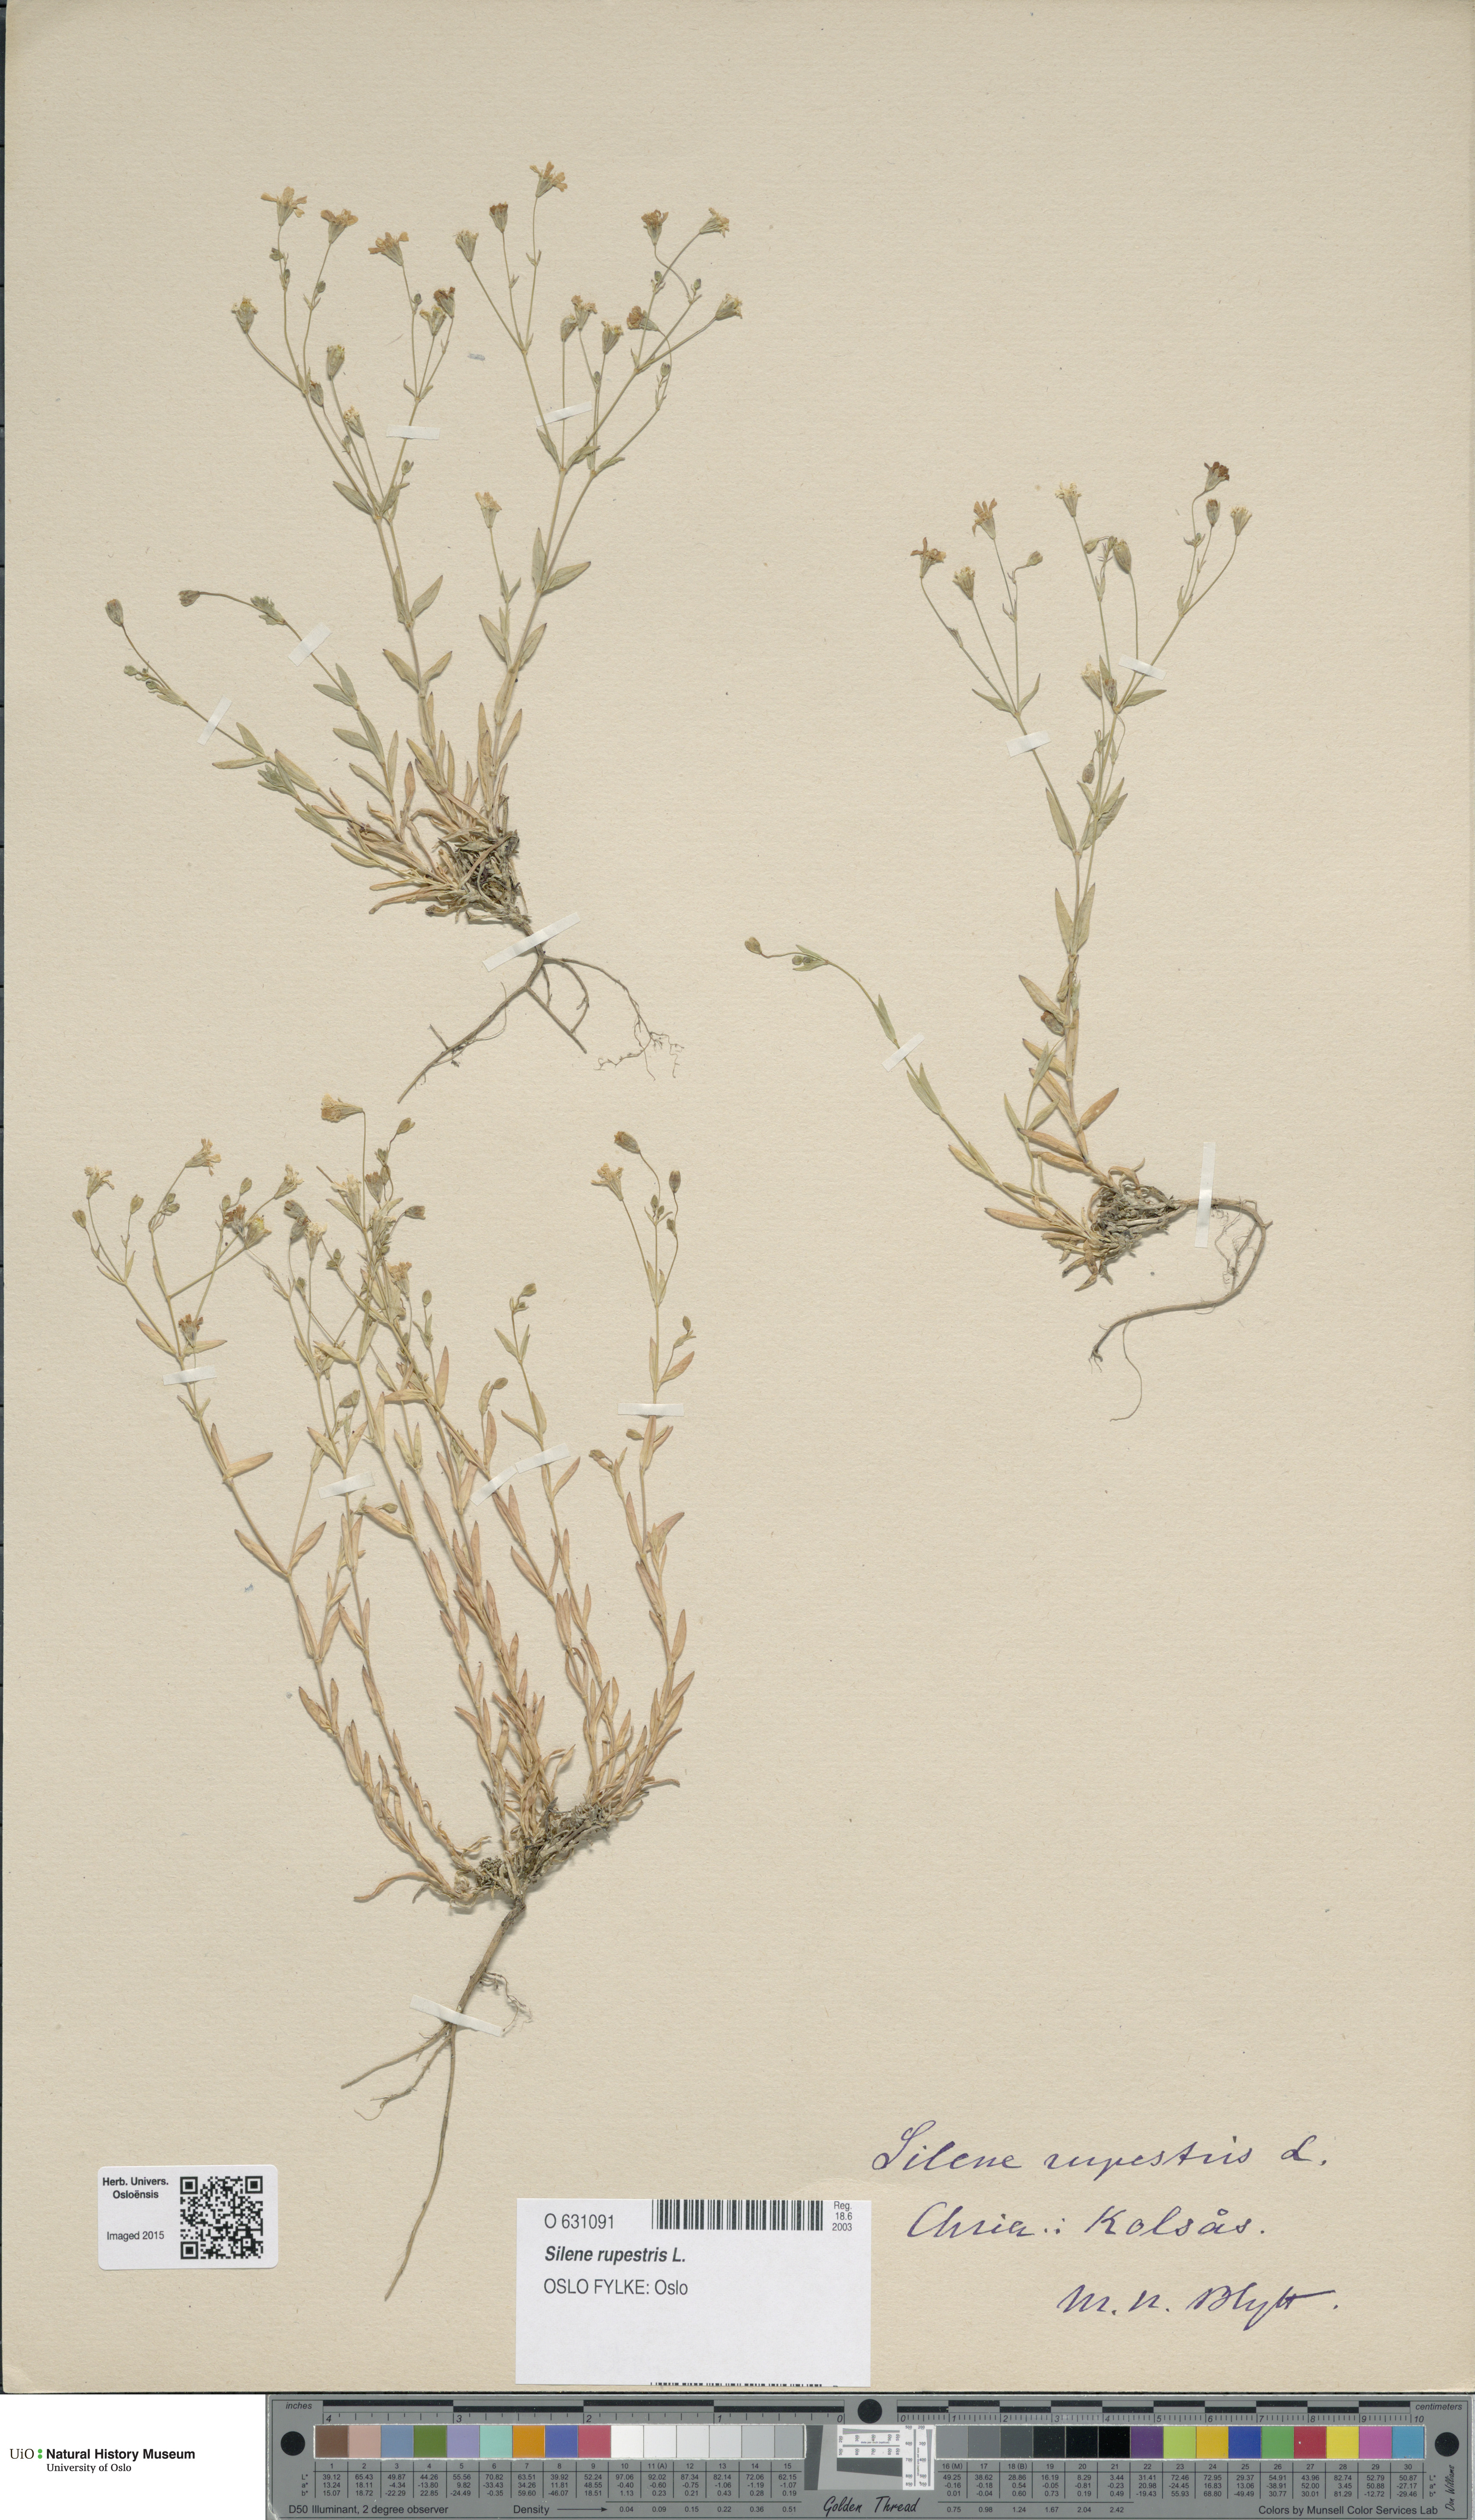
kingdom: Plantae
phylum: Tracheophyta
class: Magnoliopsida
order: Caryophyllales
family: Caryophyllaceae
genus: Atocion
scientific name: Atocion rupestre
